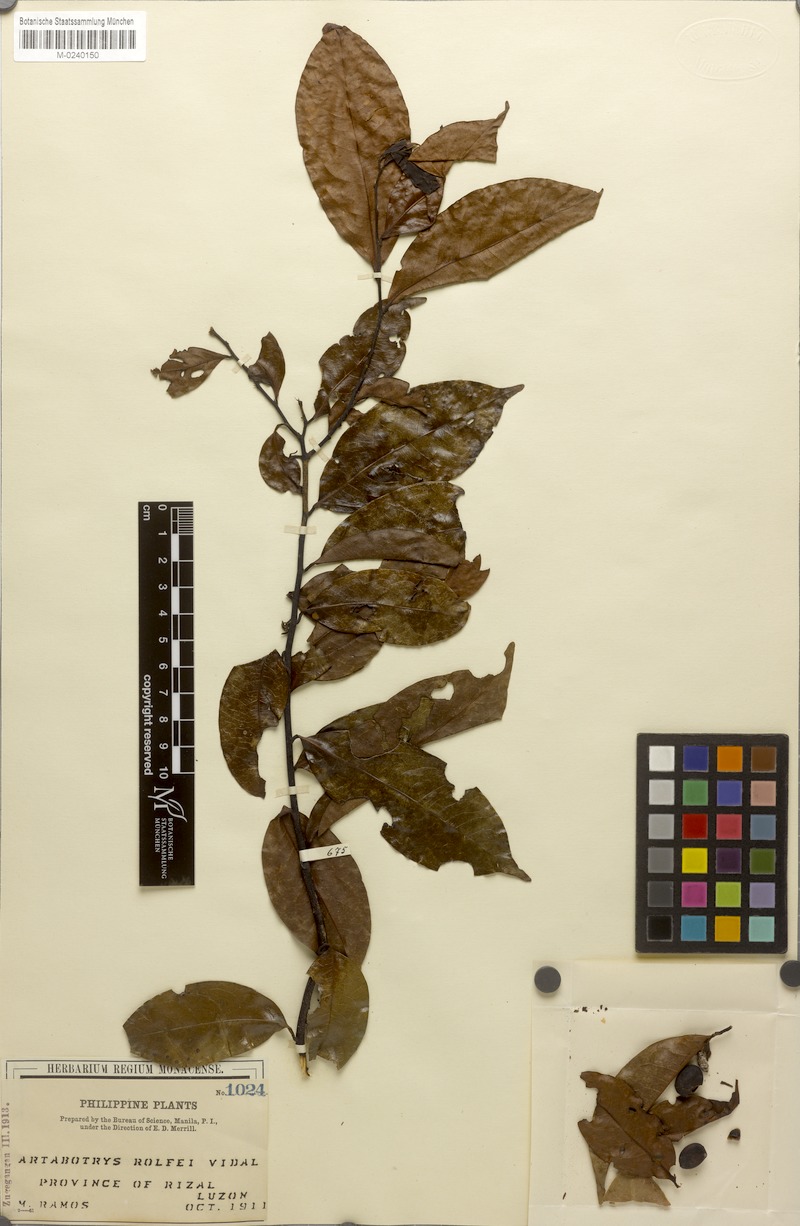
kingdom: Plantae
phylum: Tracheophyta
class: Magnoliopsida
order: Magnoliales
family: Annonaceae
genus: Artabotrys
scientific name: Artabotrys suaveolens
